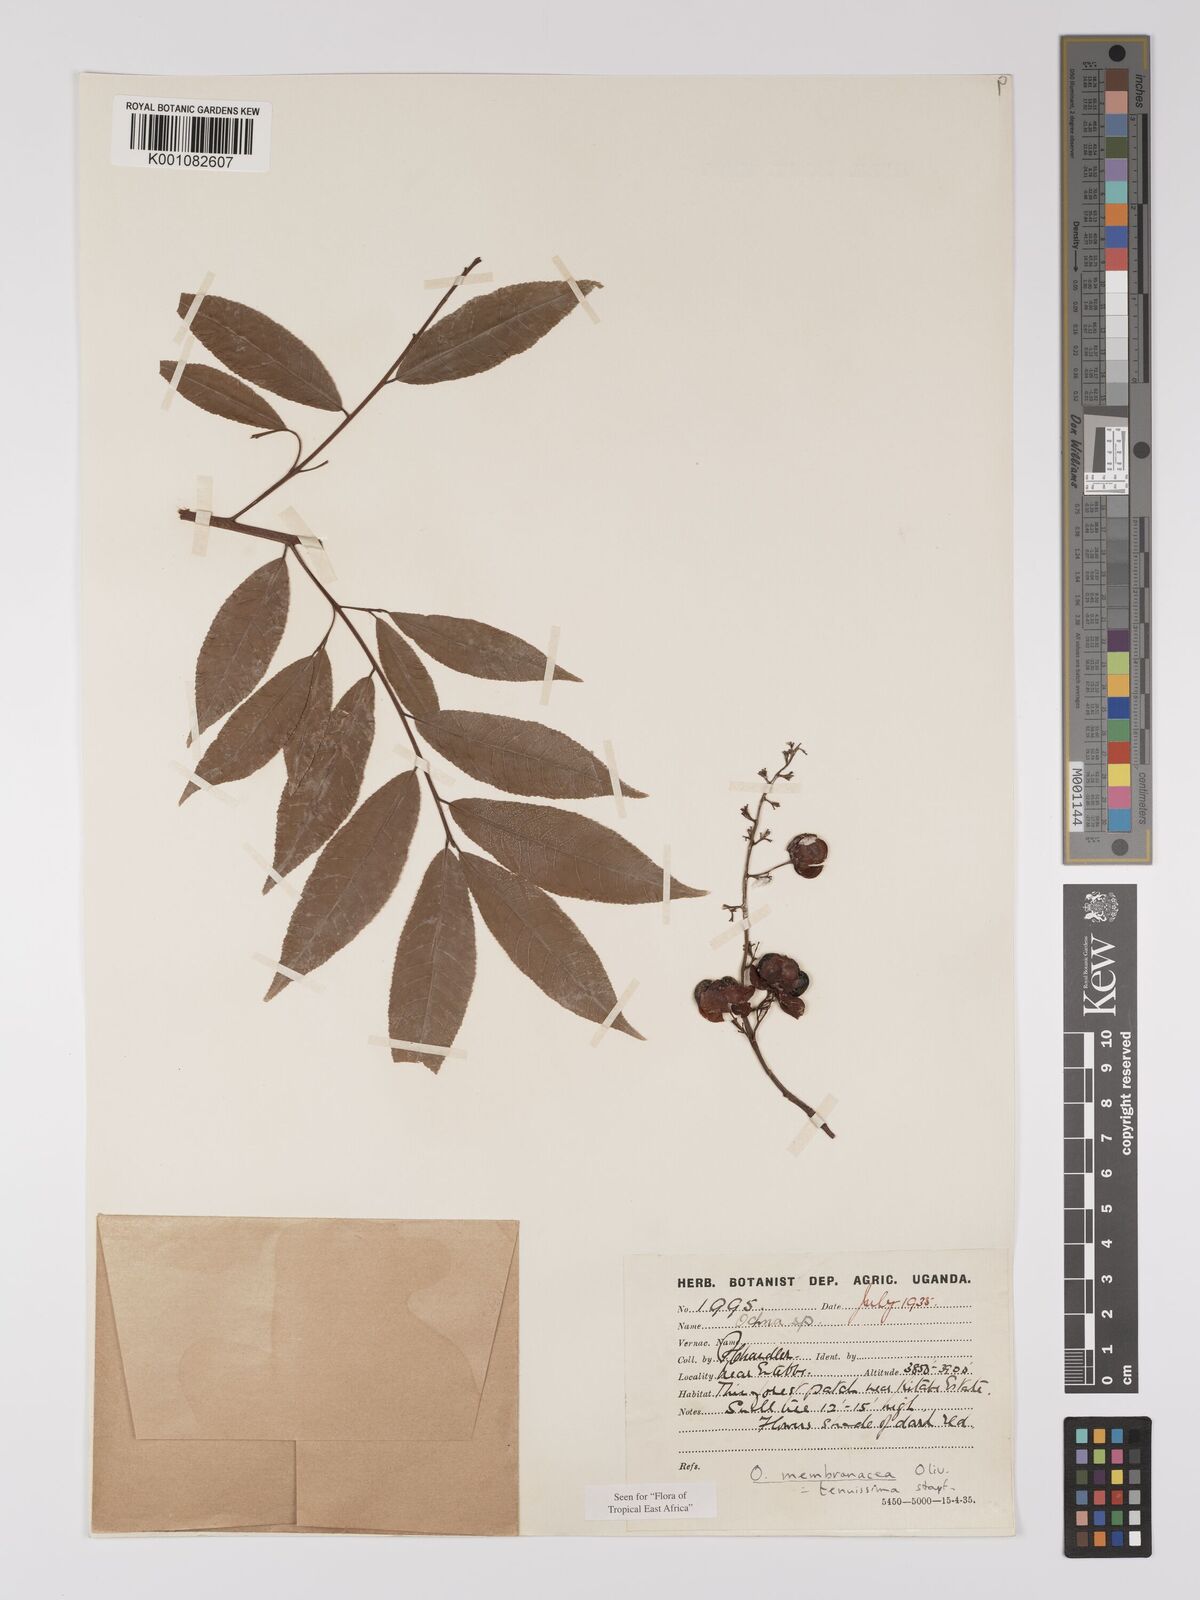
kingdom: Plantae
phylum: Tracheophyta
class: Magnoliopsida
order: Malpighiales
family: Ochnaceae
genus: Ochna
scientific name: Ochna membranacea
